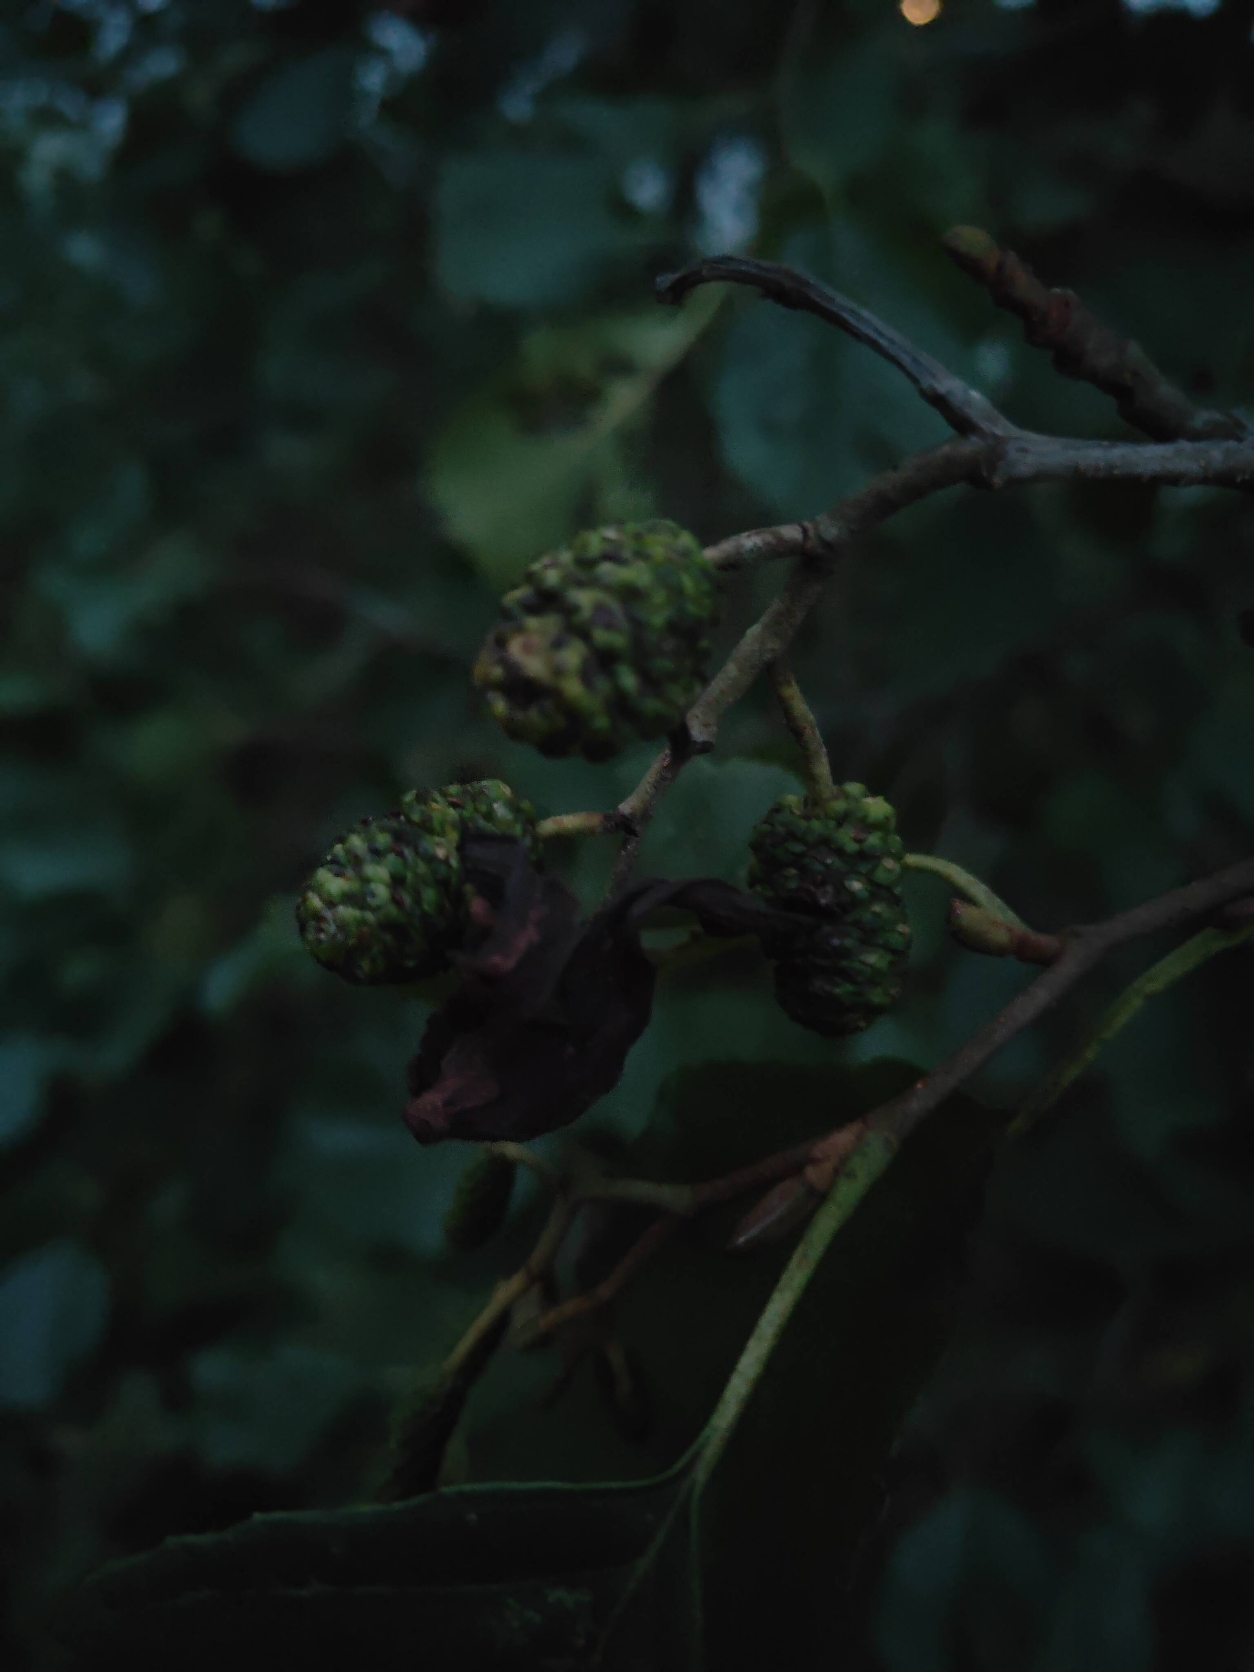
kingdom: Plantae
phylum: Tracheophyta
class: Magnoliopsida
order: Fagales
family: Betulaceae
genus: Alnus
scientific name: Alnus glutinosa
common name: Rød-el
